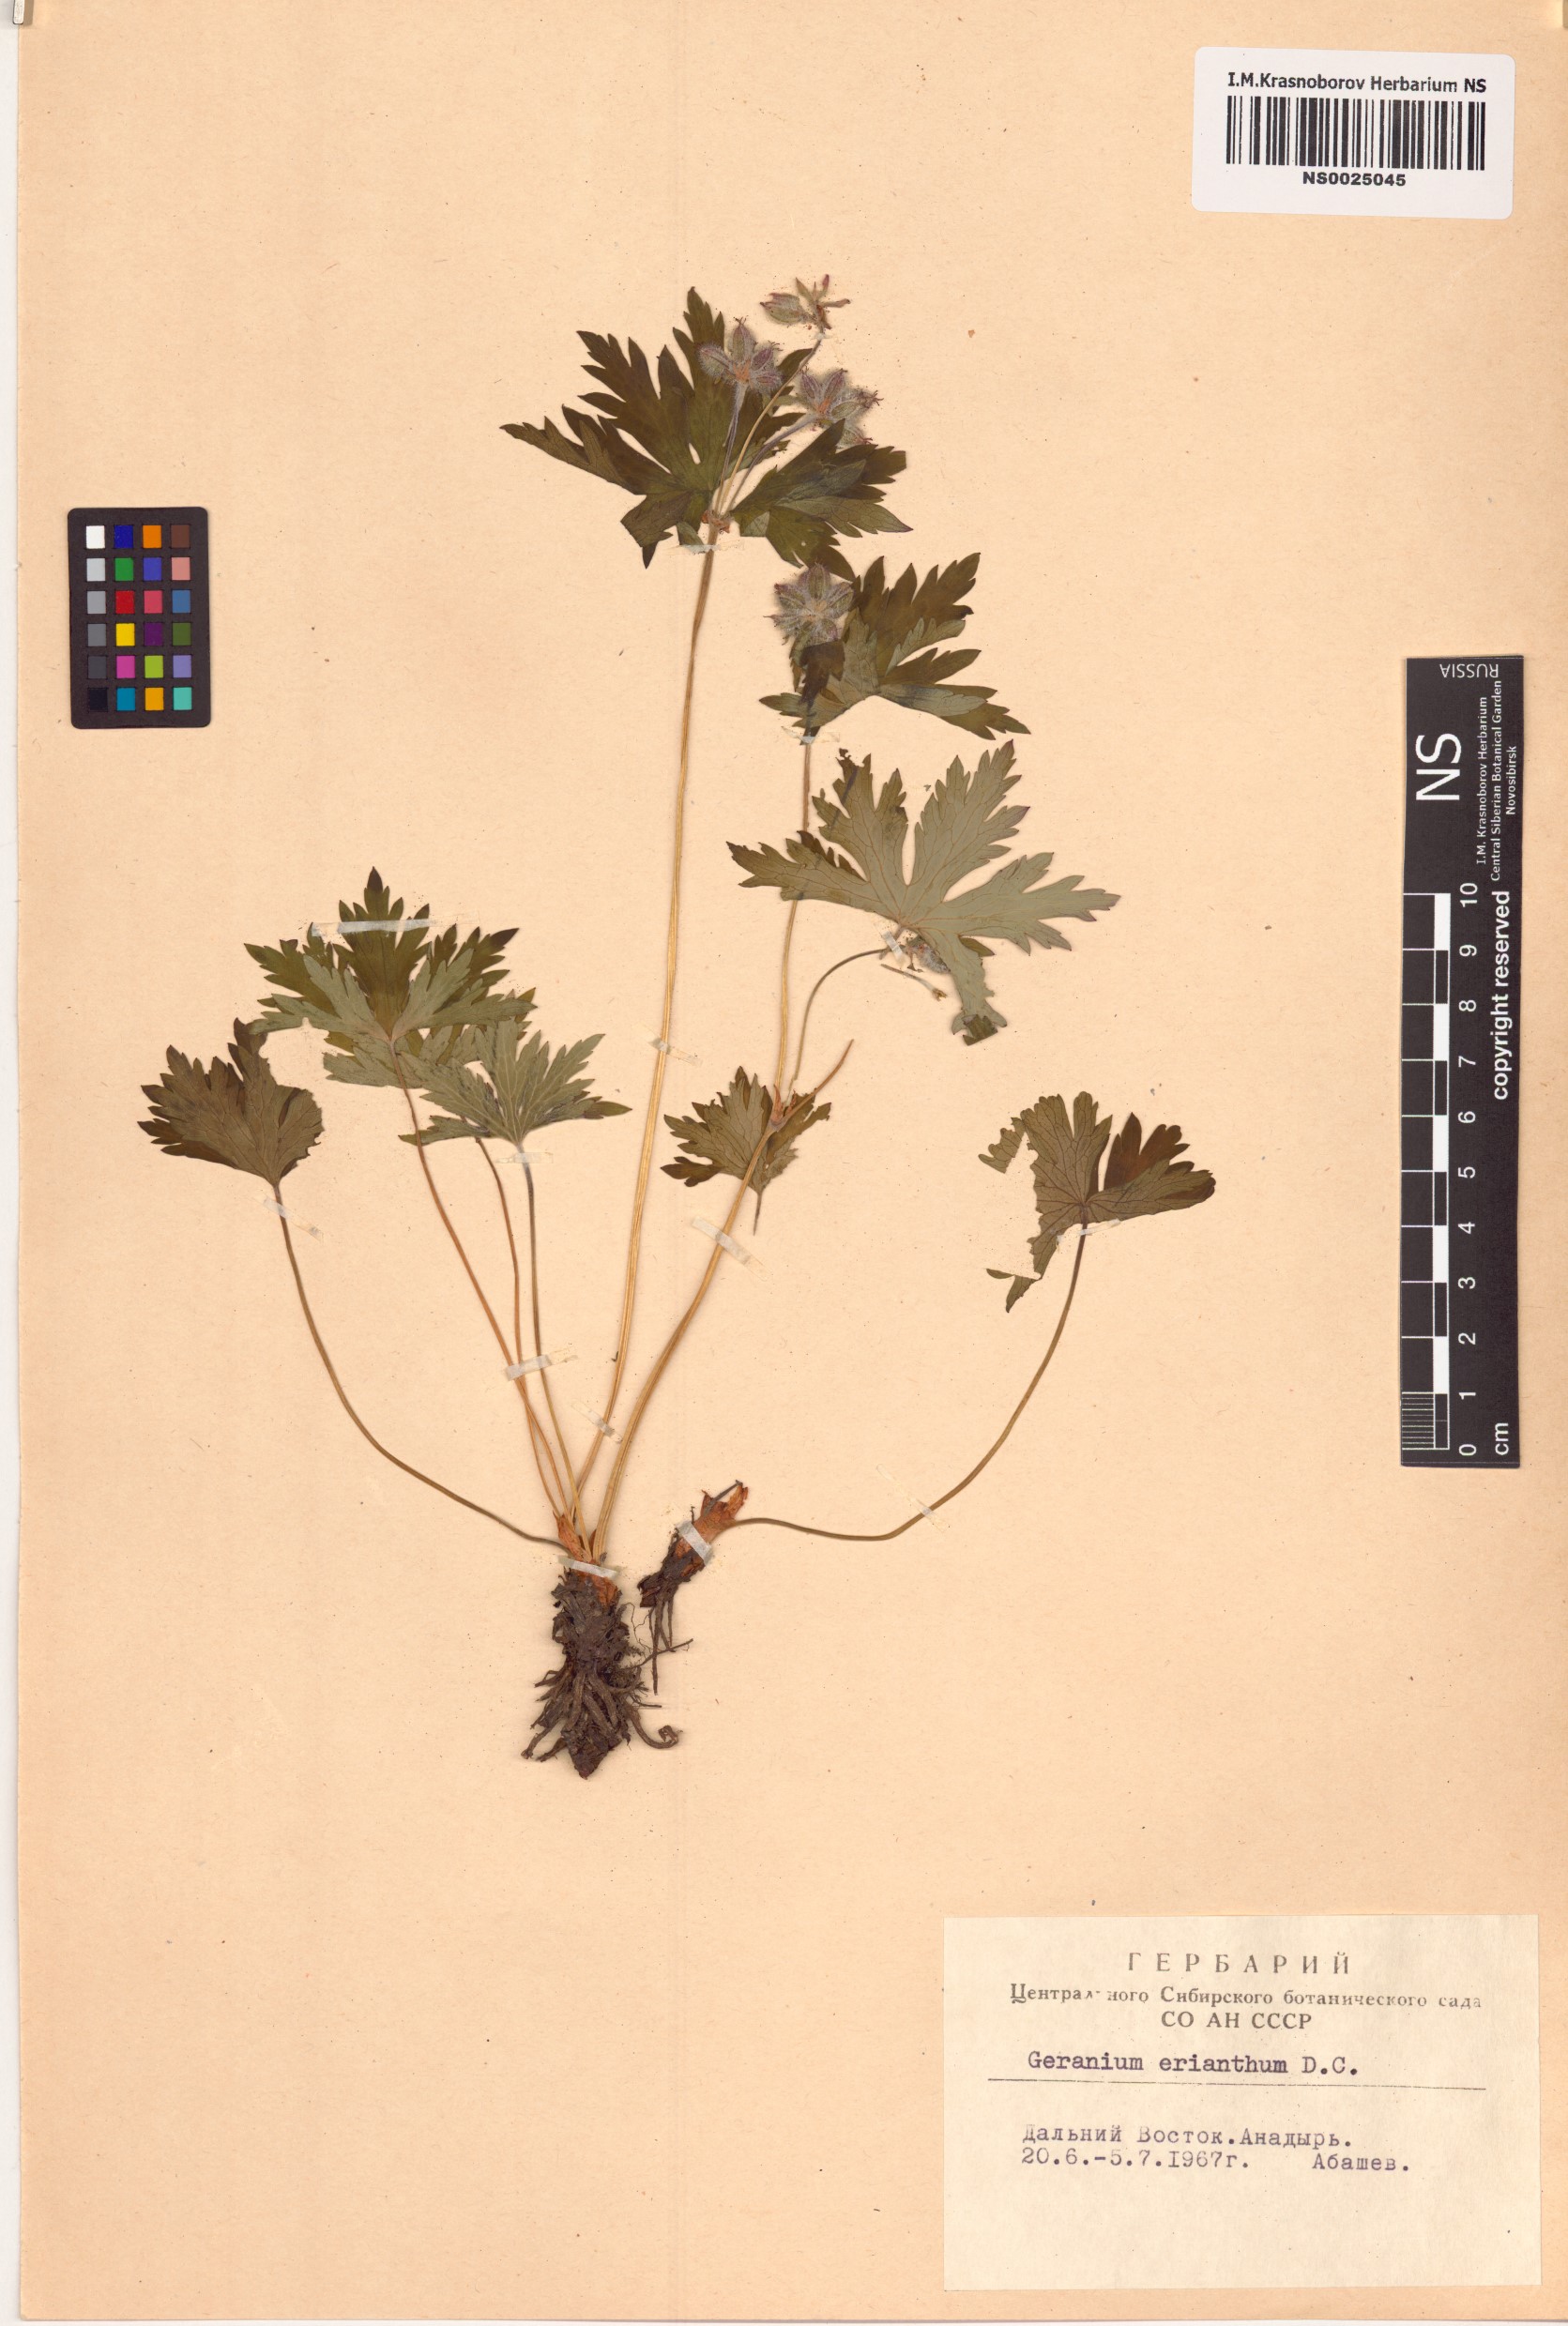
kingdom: Plantae
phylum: Tracheophyta
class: Magnoliopsida
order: Geraniales
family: Geraniaceae
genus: Geranium
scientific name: Geranium erianthum
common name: Northern crane's-bill
